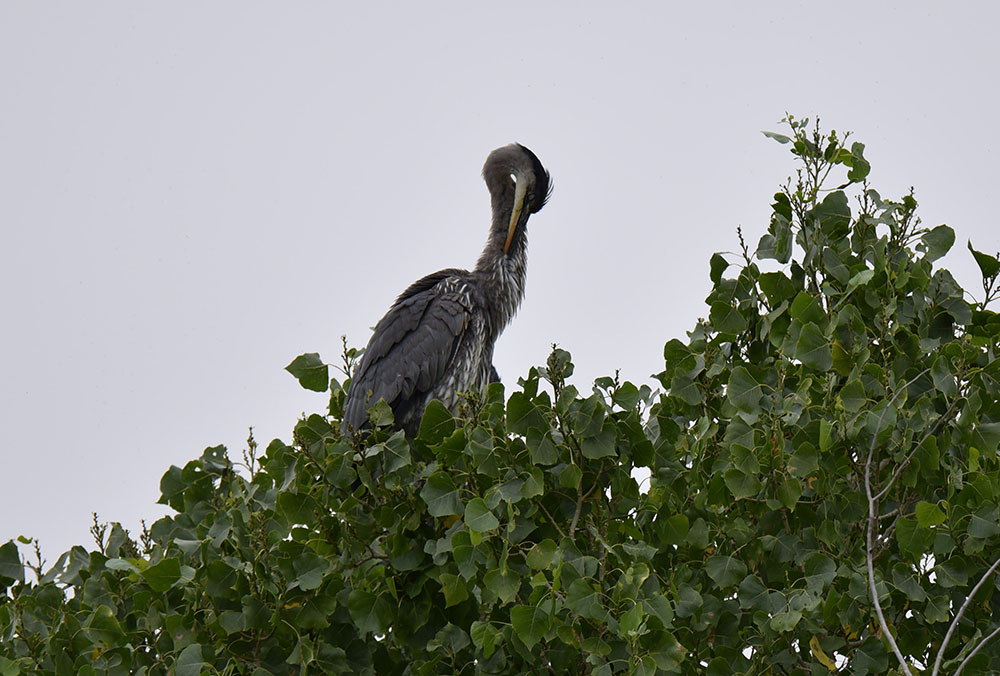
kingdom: Animalia
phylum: Chordata
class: Aves
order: Pelecaniformes
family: Ardeidae
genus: Ardea
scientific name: Ardea herodias
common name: Great blue heron
